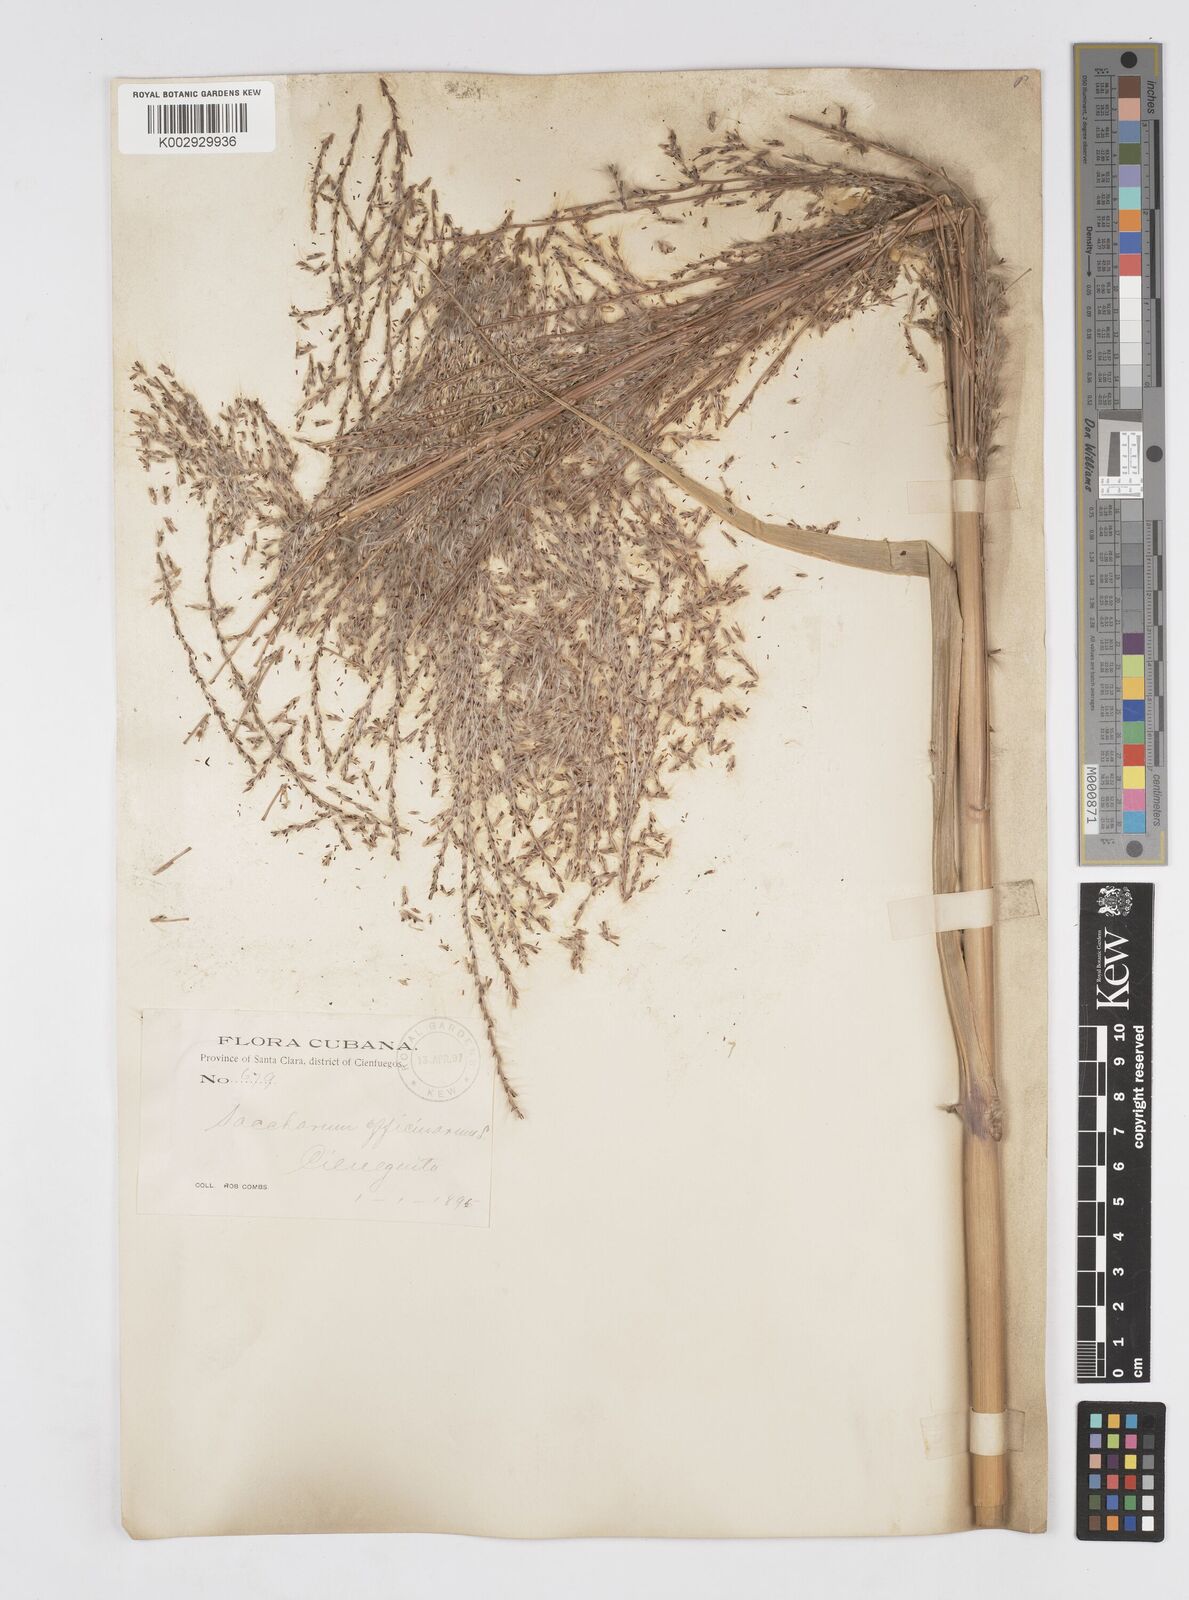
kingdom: Plantae
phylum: Tracheophyta
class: Liliopsida
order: Poales
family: Poaceae
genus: Saccharum
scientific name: Saccharum officinarum
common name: Sugarcane
